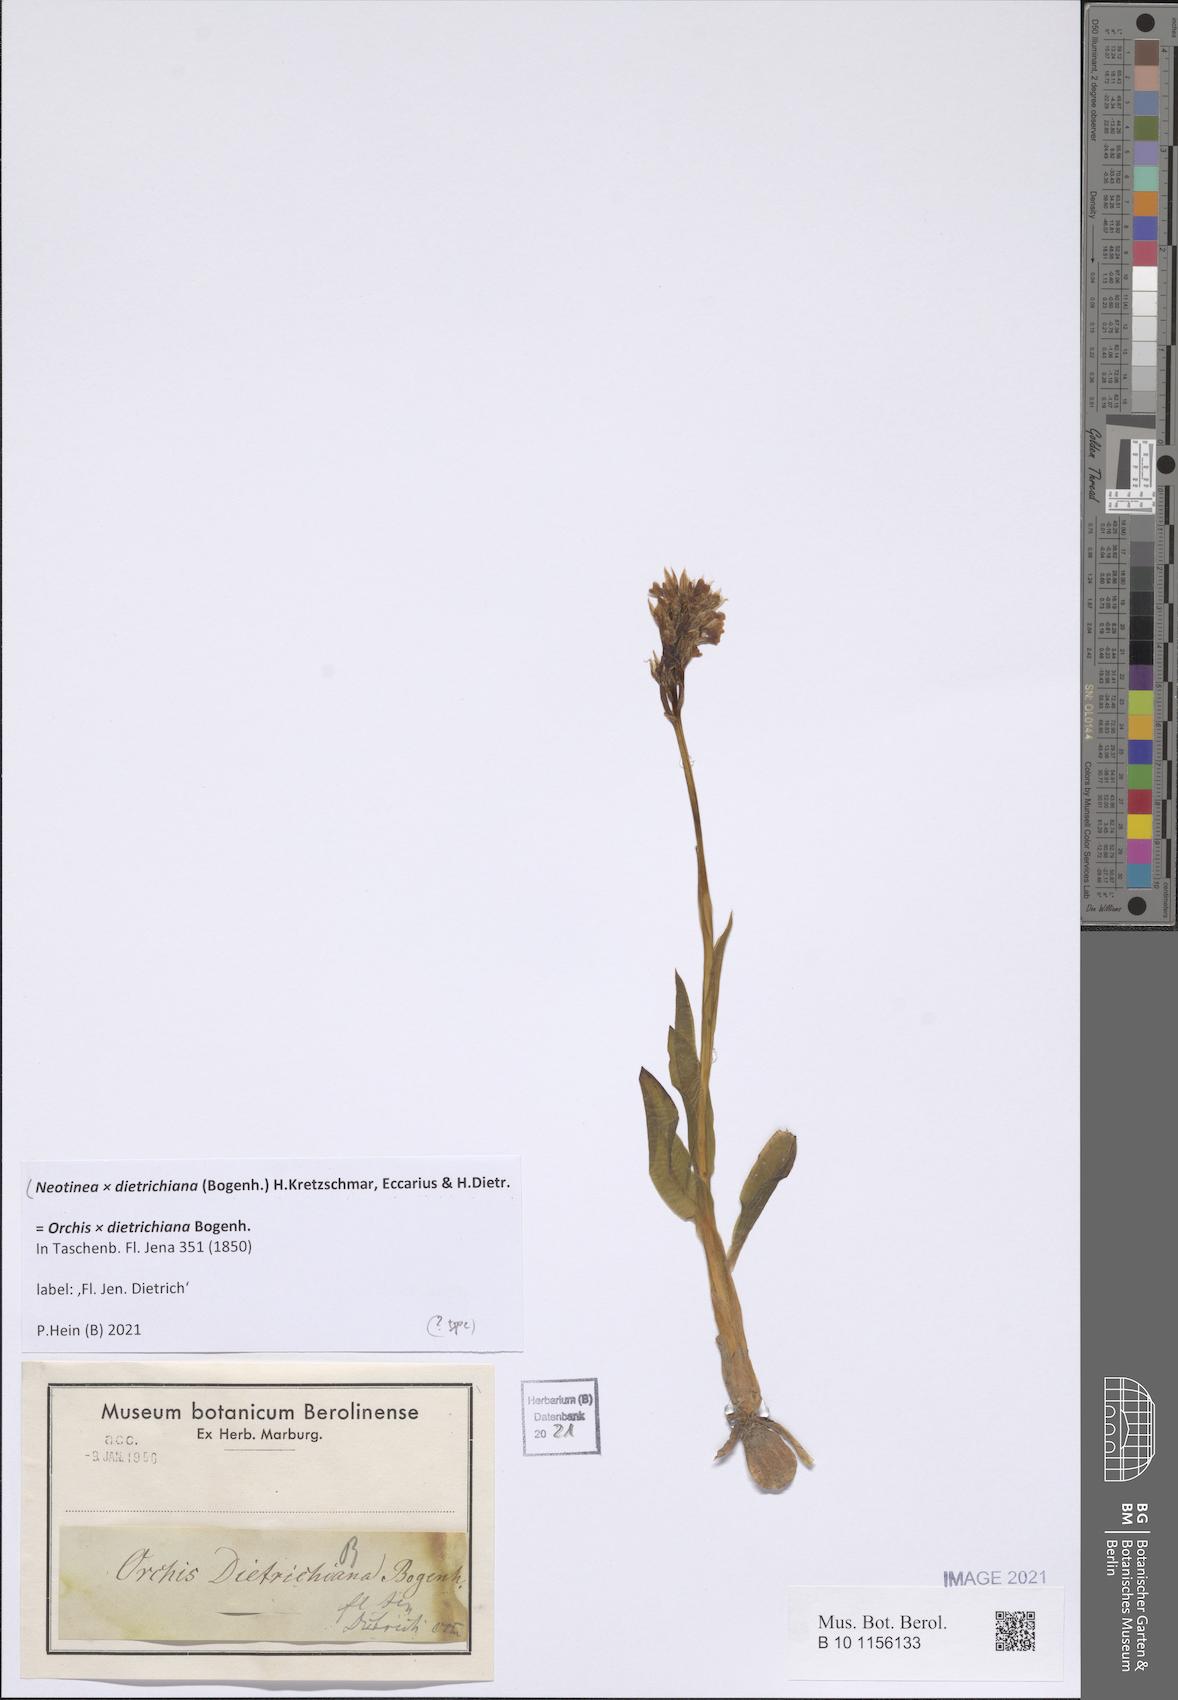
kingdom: Plantae
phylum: Tracheophyta
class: Liliopsida
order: Asparagales
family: Orchidaceae
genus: Neotinea
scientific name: Neotinea dietrichiana
